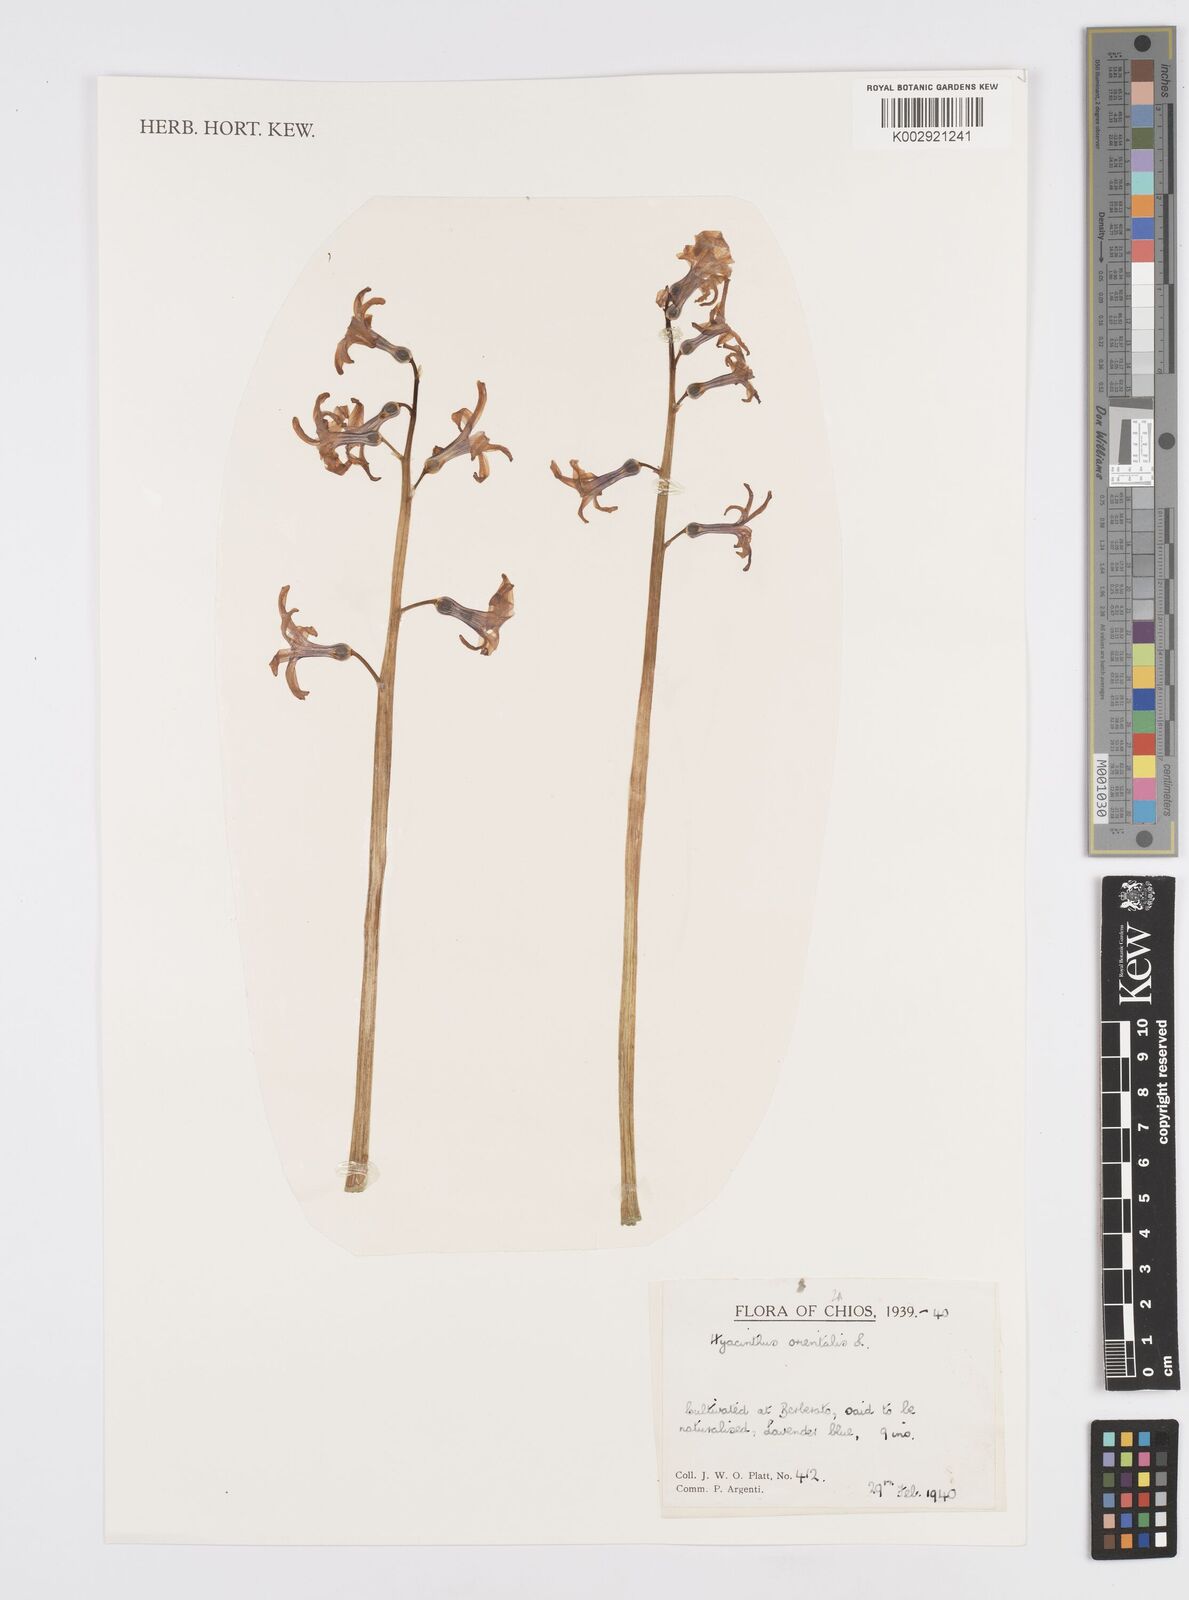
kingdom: Plantae
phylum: Tracheophyta
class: Liliopsida
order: Asparagales
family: Asparagaceae
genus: Hyacinthus
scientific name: Hyacinthus orientalis
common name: Hyacinth
